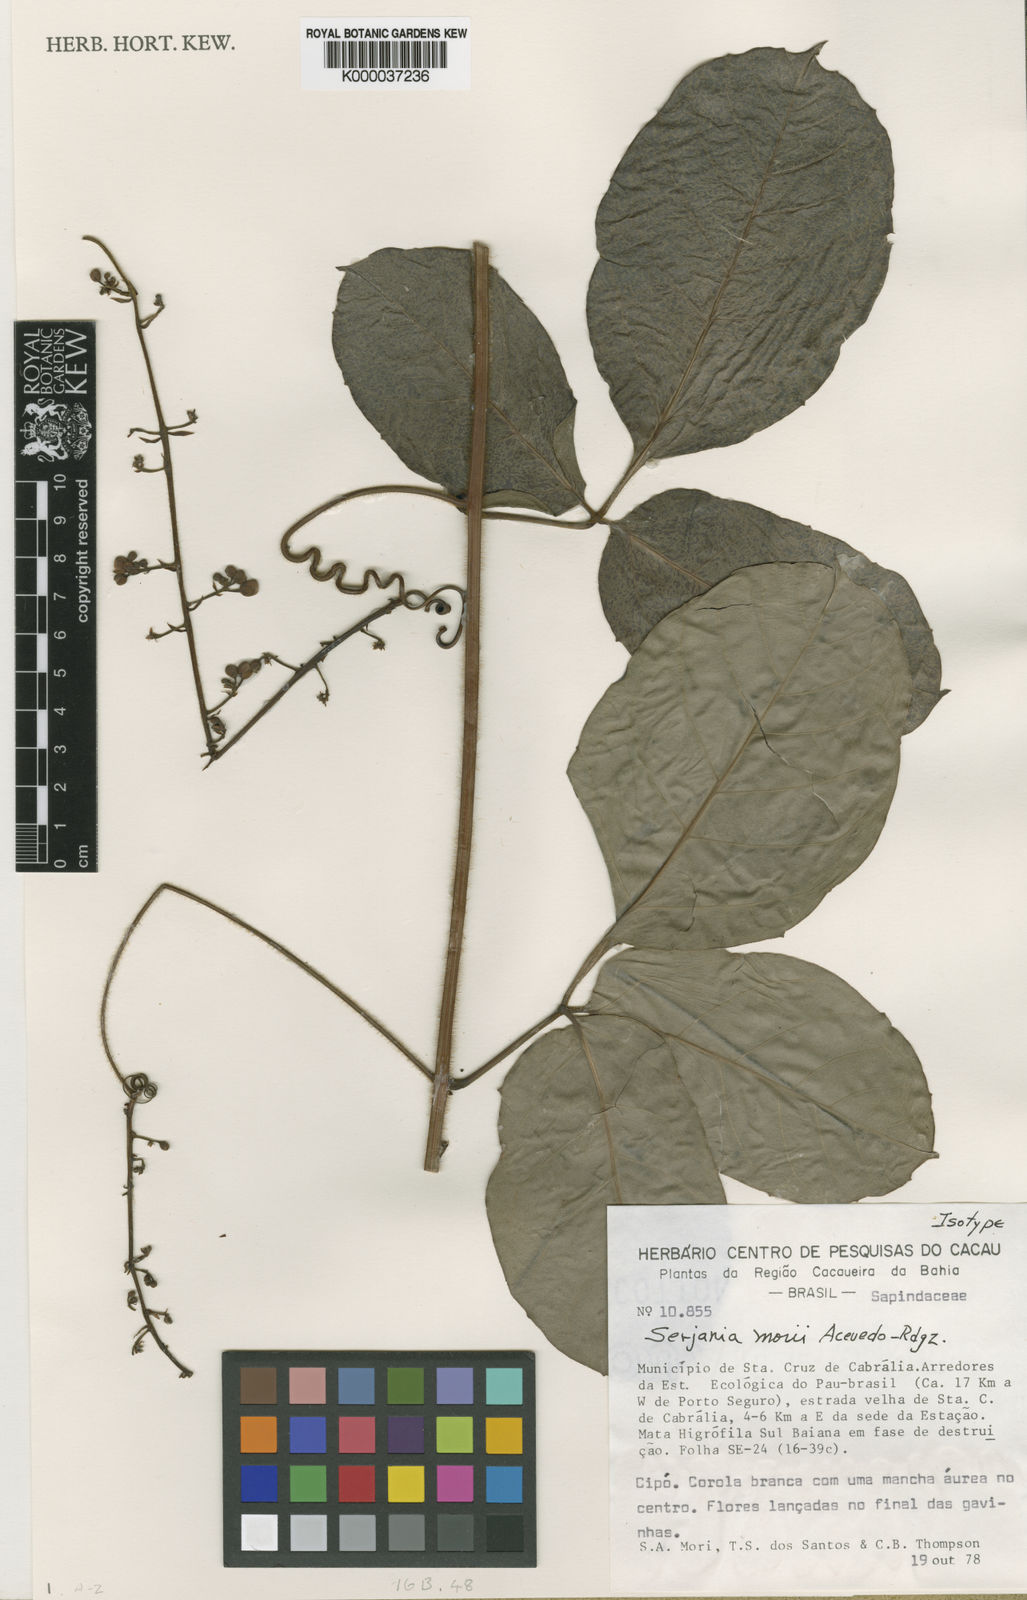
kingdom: Plantae
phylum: Tracheophyta
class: Magnoliopsida
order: Sapindales
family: Sapindaceae
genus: Serjania
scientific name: Serjania morii
